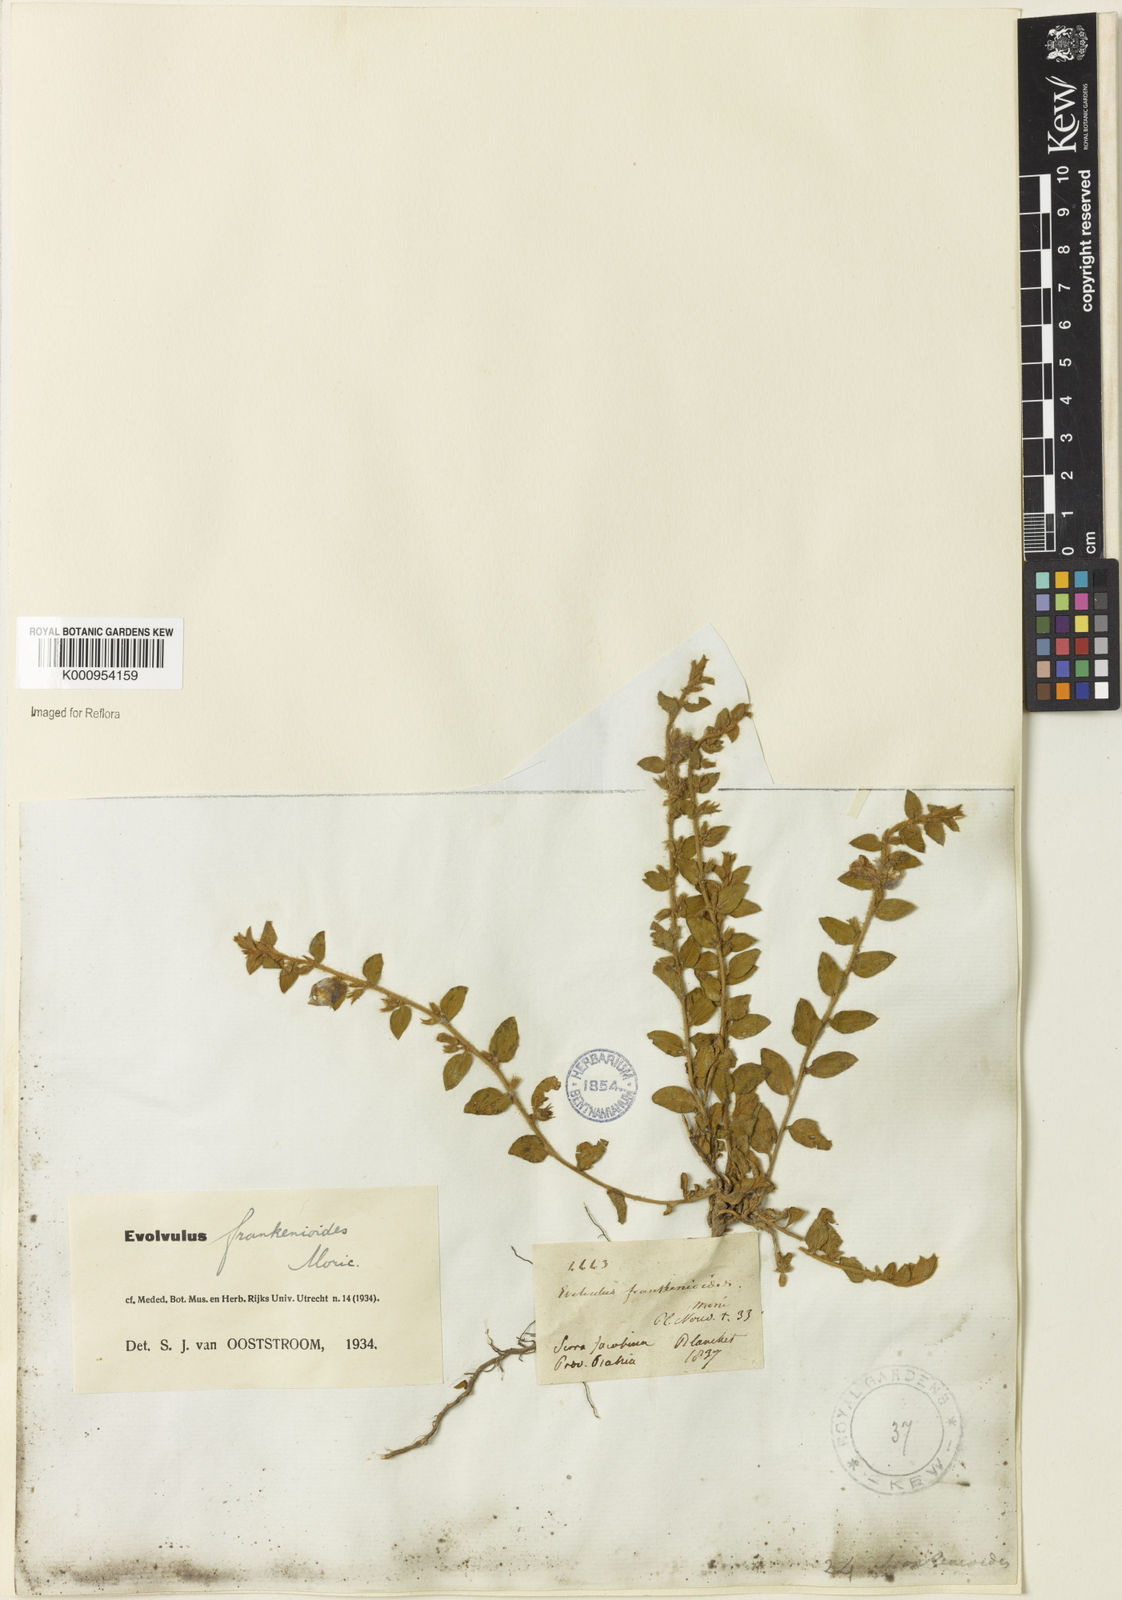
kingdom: Plantae
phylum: Tracheophyta
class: Magnoliopsida
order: Solanales
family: Convolvulaceae
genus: Evolvulus
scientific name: Evolvulus frankenioides
